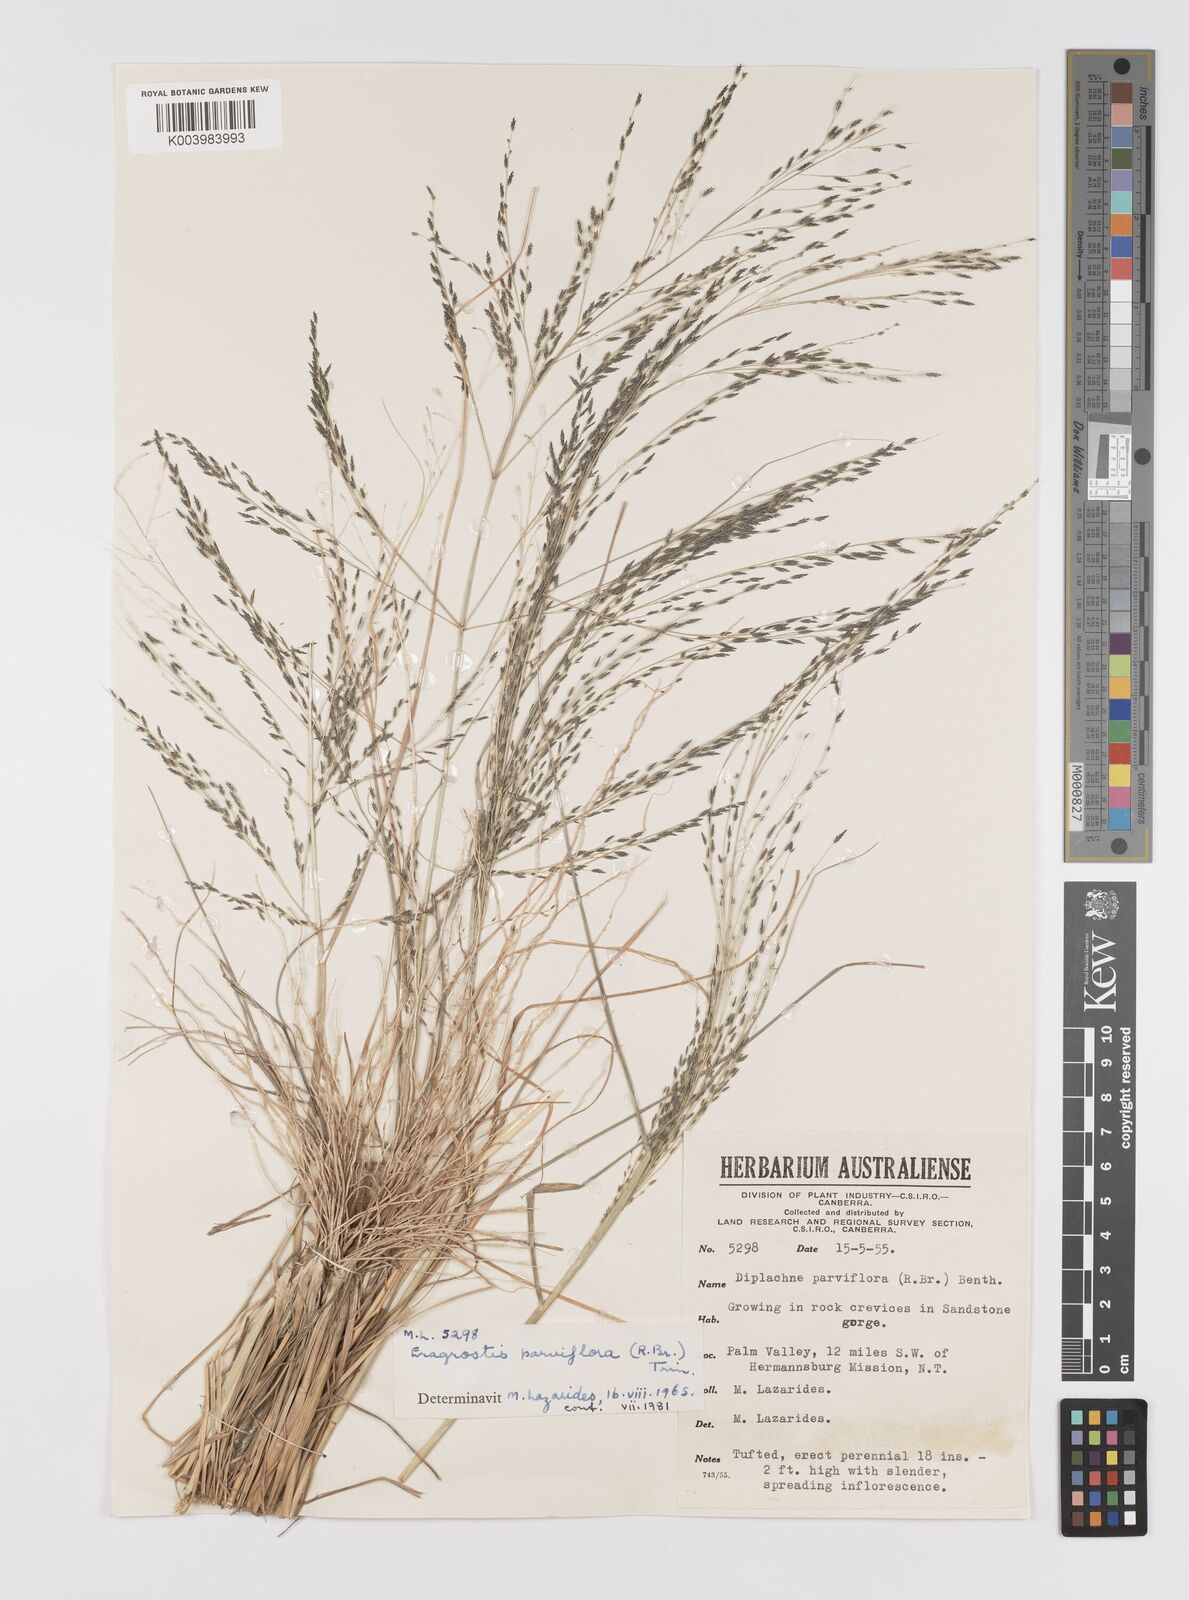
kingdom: Plantae
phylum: Tracheophyta
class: Liliopsida
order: Poales
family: Poaceae
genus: Eragrostis
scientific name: Eragrostis parviflora
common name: Weeping love-grass
